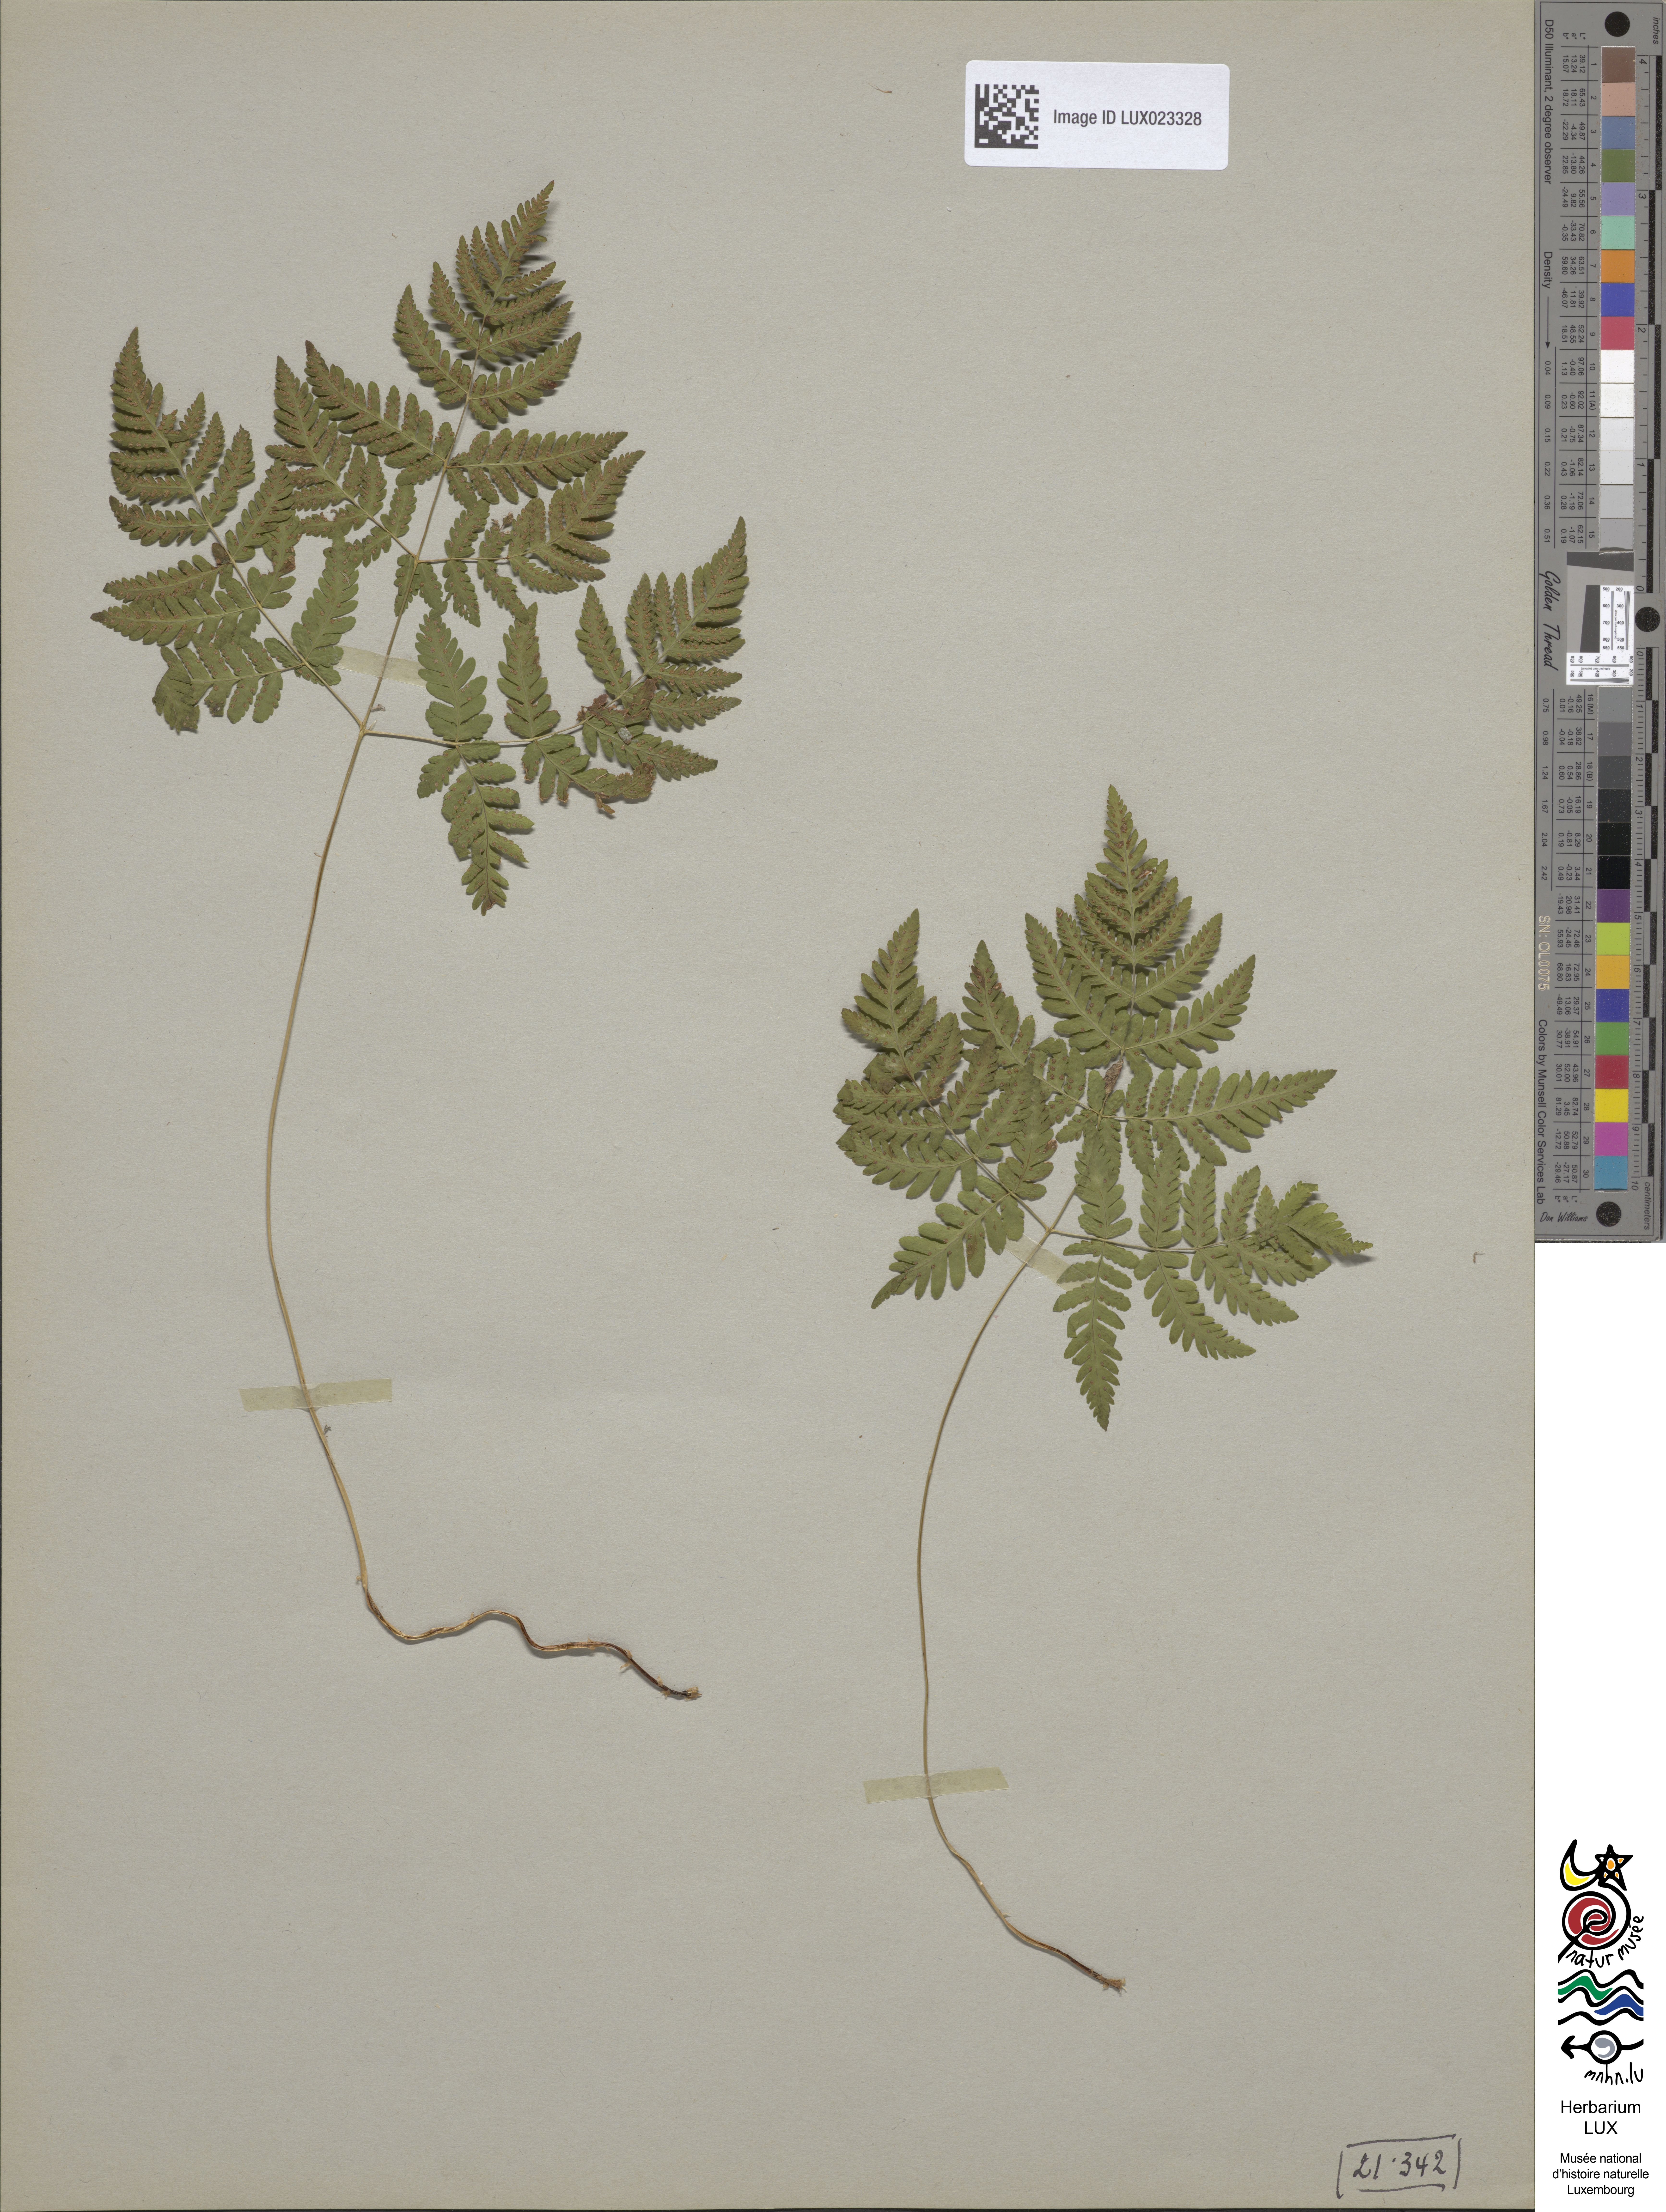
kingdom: Plantae
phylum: Tracheophyta
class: Polypodiopsida
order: Polypodiales
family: Cystopteridaceae
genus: Gymnocarpium
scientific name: Gymnocarpium dryopteris
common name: Oak fern
